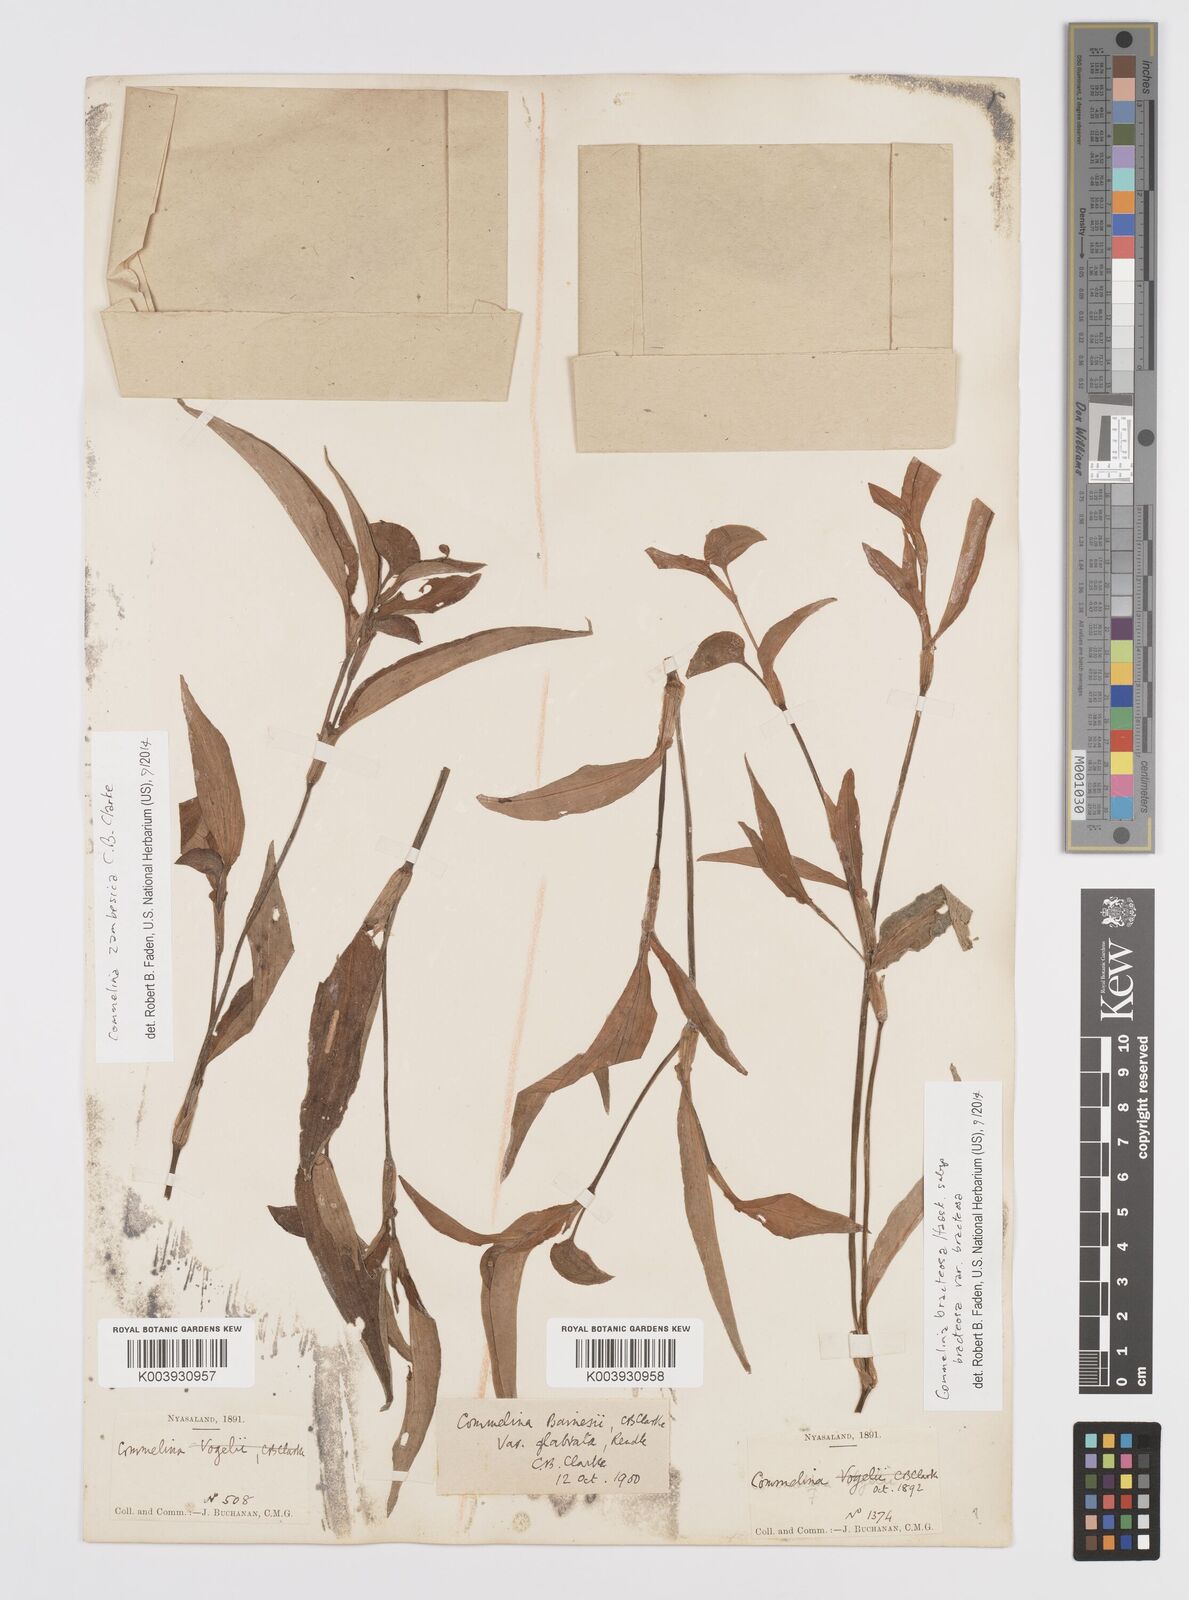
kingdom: Plantae
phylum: Tracheophyta
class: Liliopsida
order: Commelinales
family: Commelinaceae
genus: Commelina
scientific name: Commelina bracteosa
